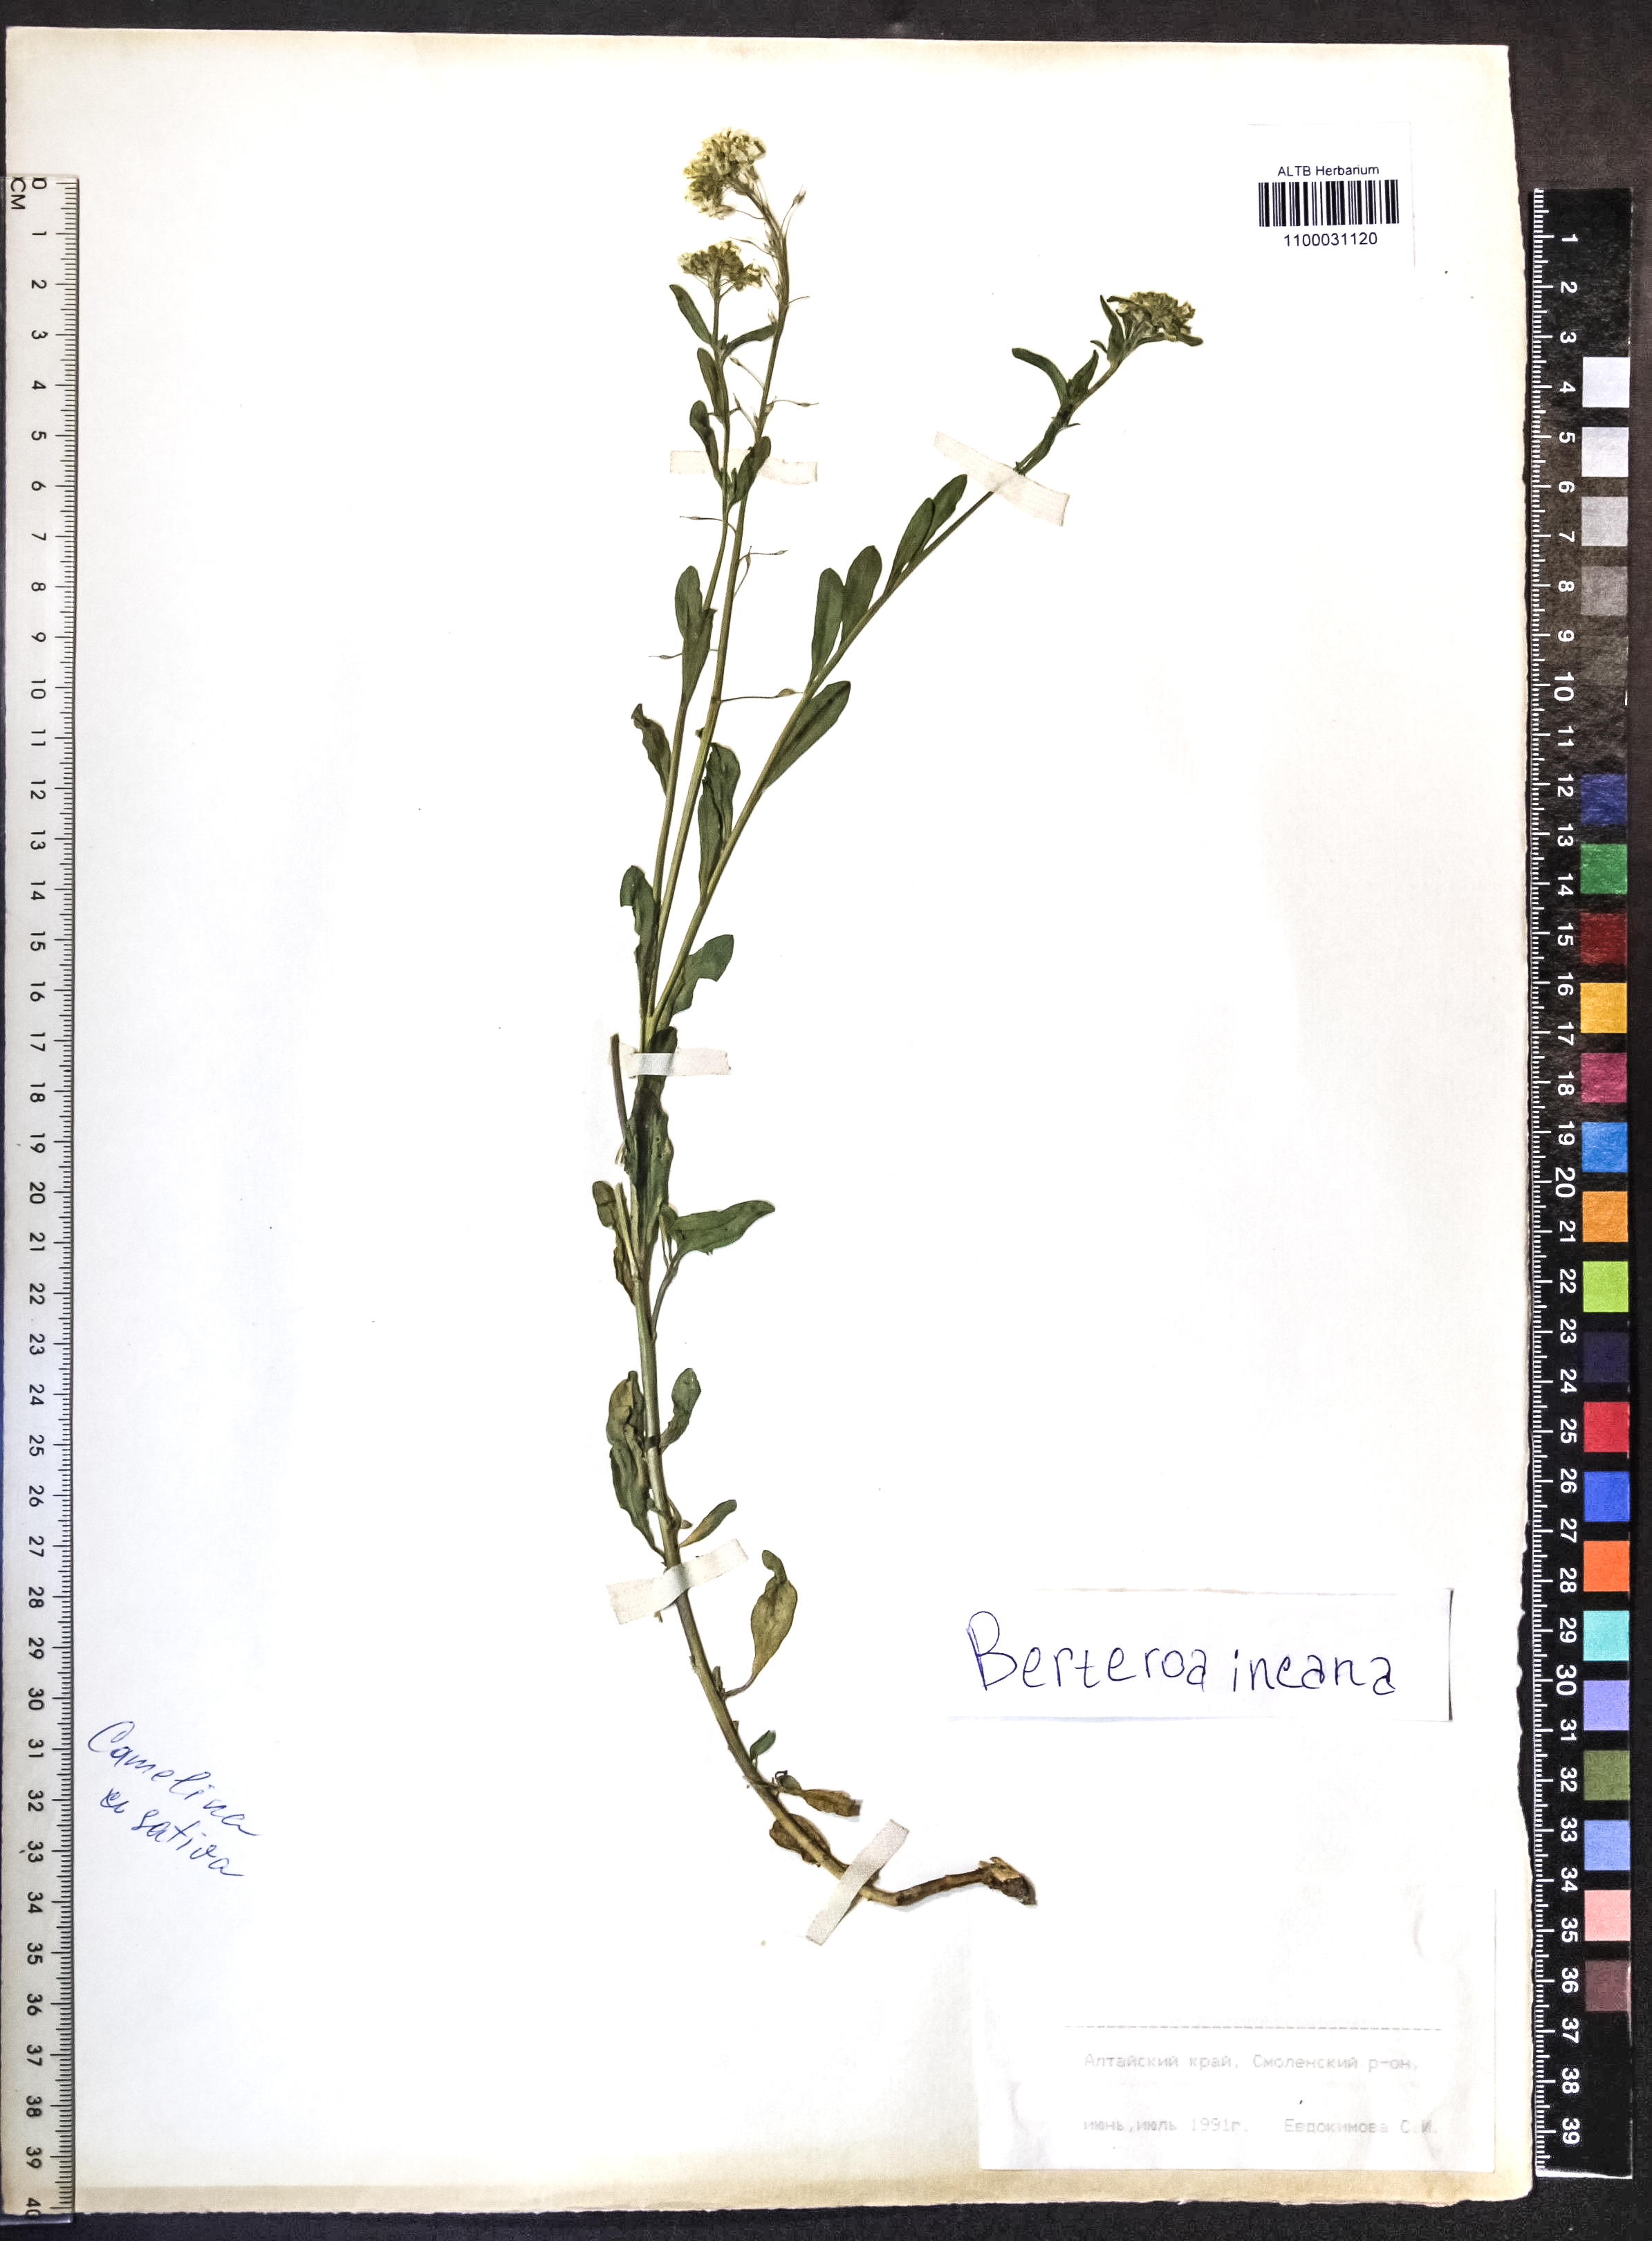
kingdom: Plantae
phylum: Tracheophyta
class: Magnoliopsida
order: Brassicales
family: Brassicaceae
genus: Berteroa
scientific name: Berteroa incana
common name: Hoary alison
